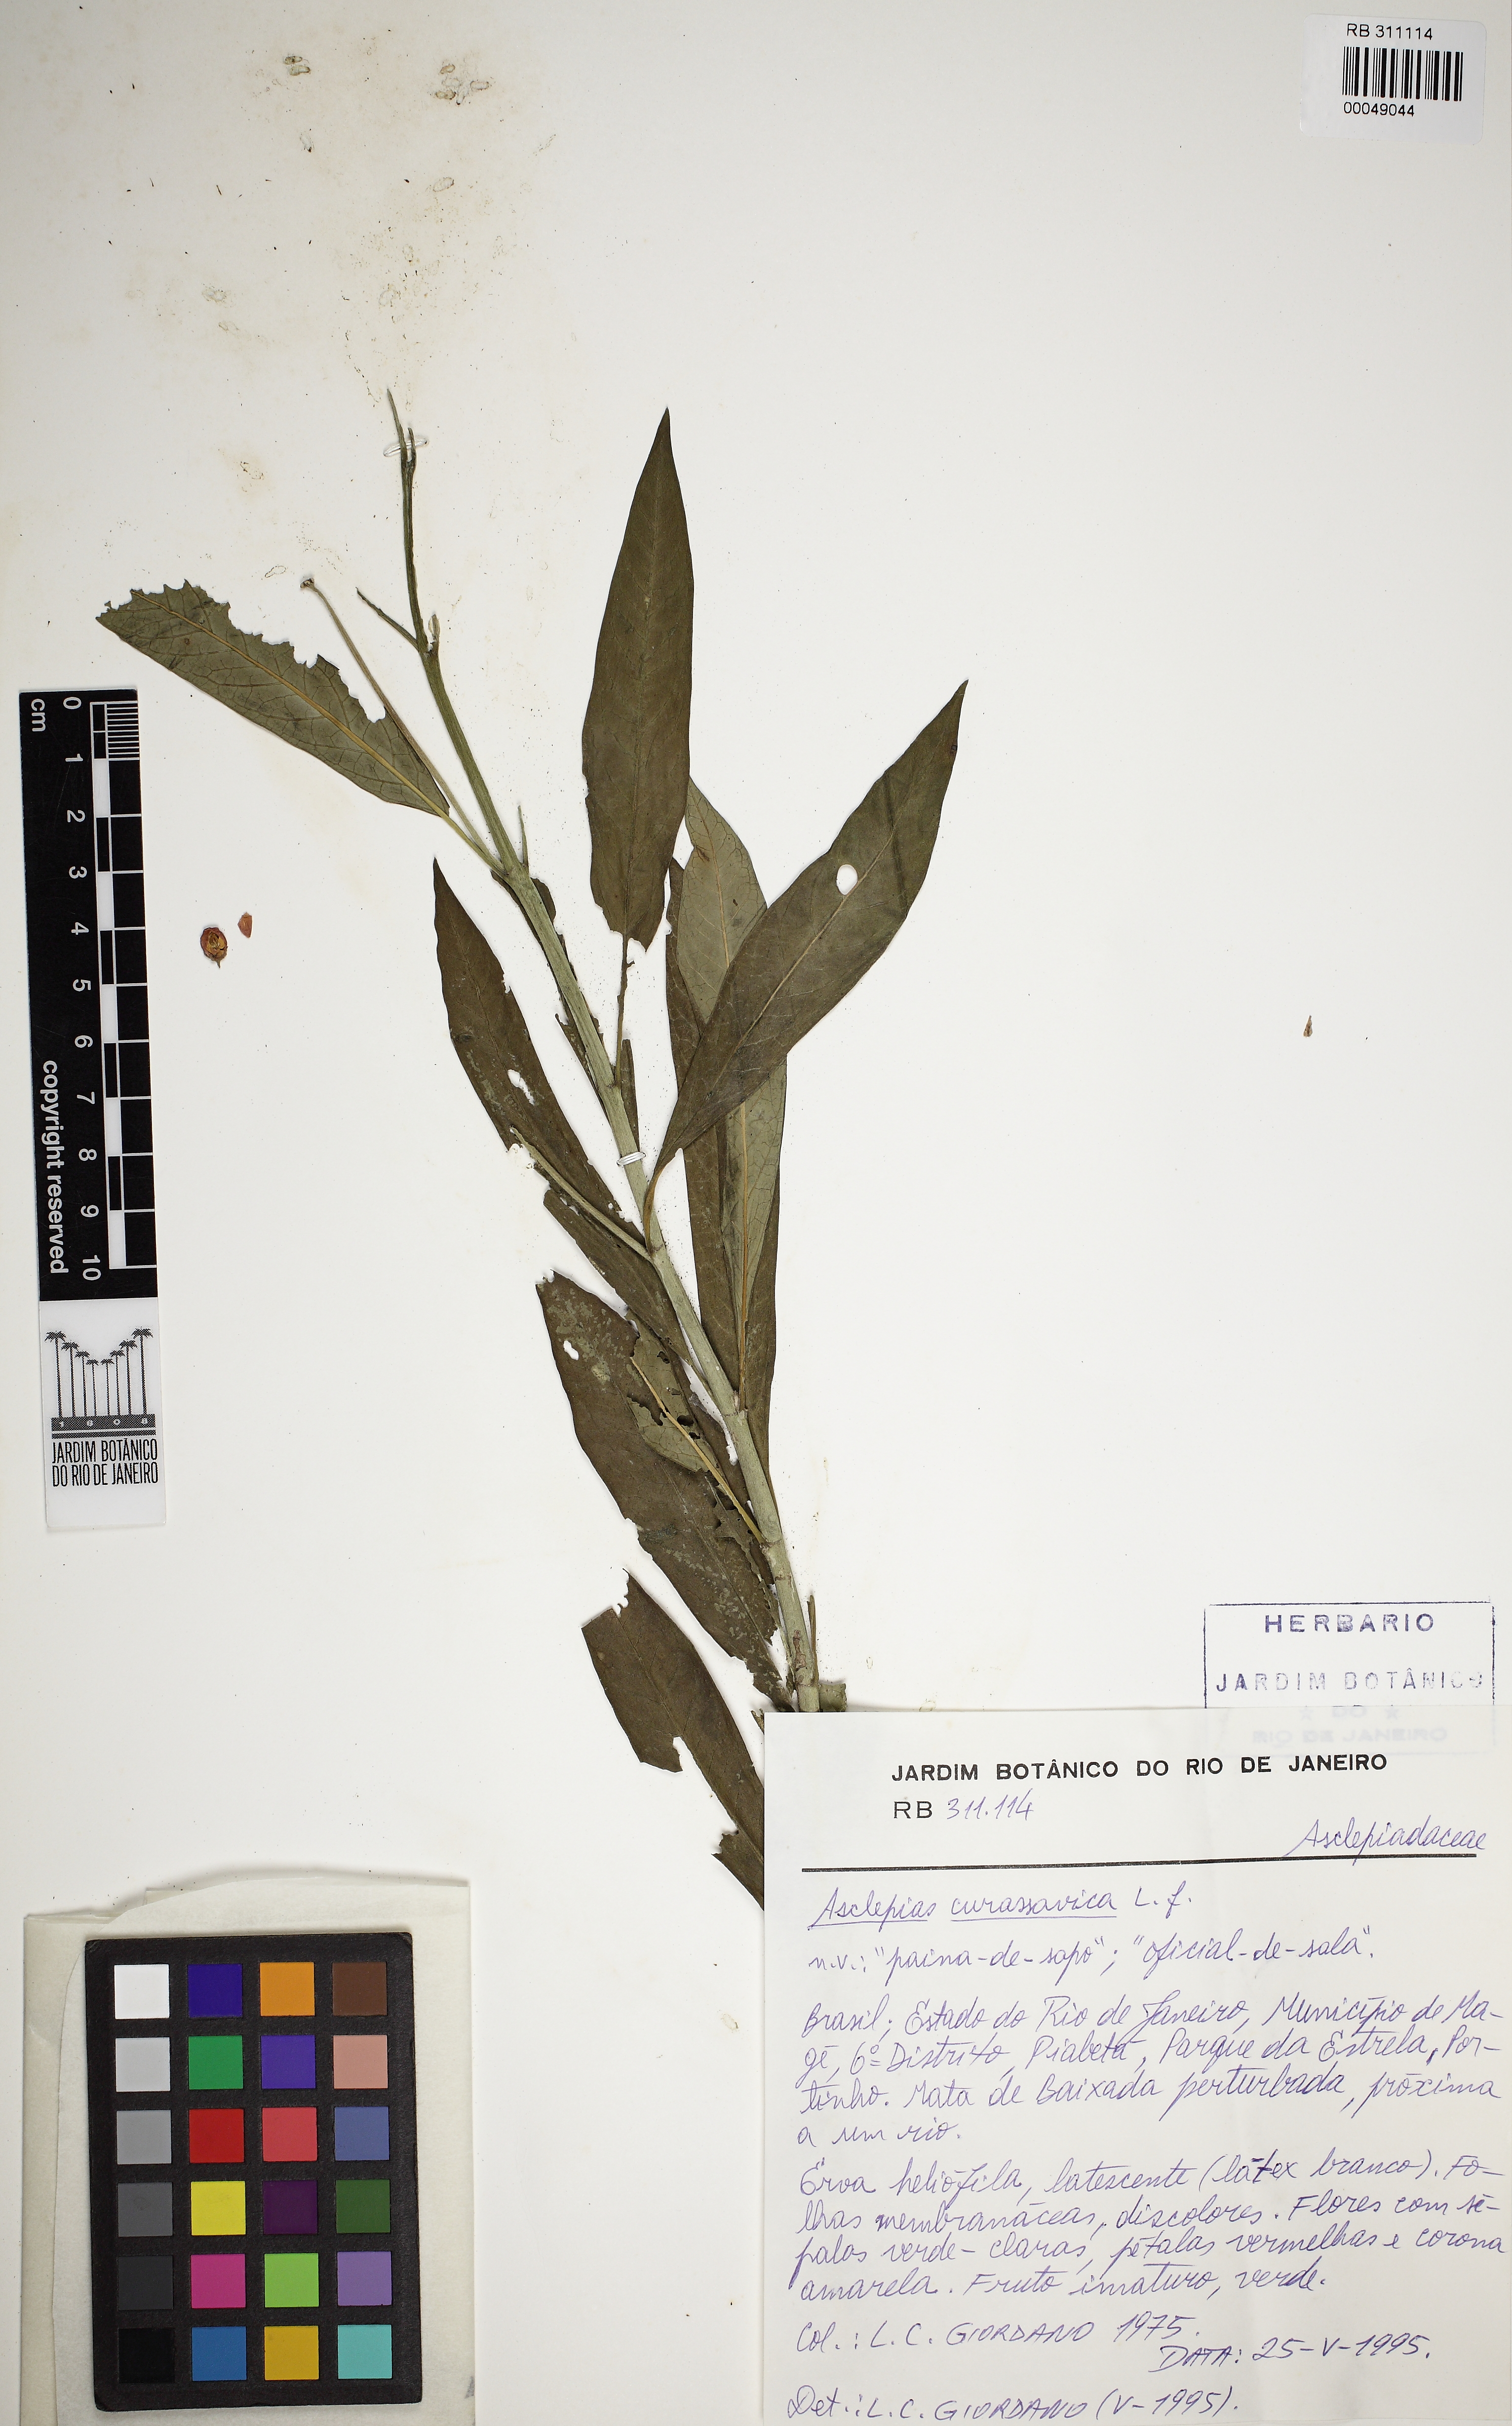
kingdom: Plantae
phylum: Tracheophyta
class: Magnoliopsida
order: Gentianales
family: Apocynaceae
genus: Asclepias
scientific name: Asclepias curassavica
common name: Bloodflower
